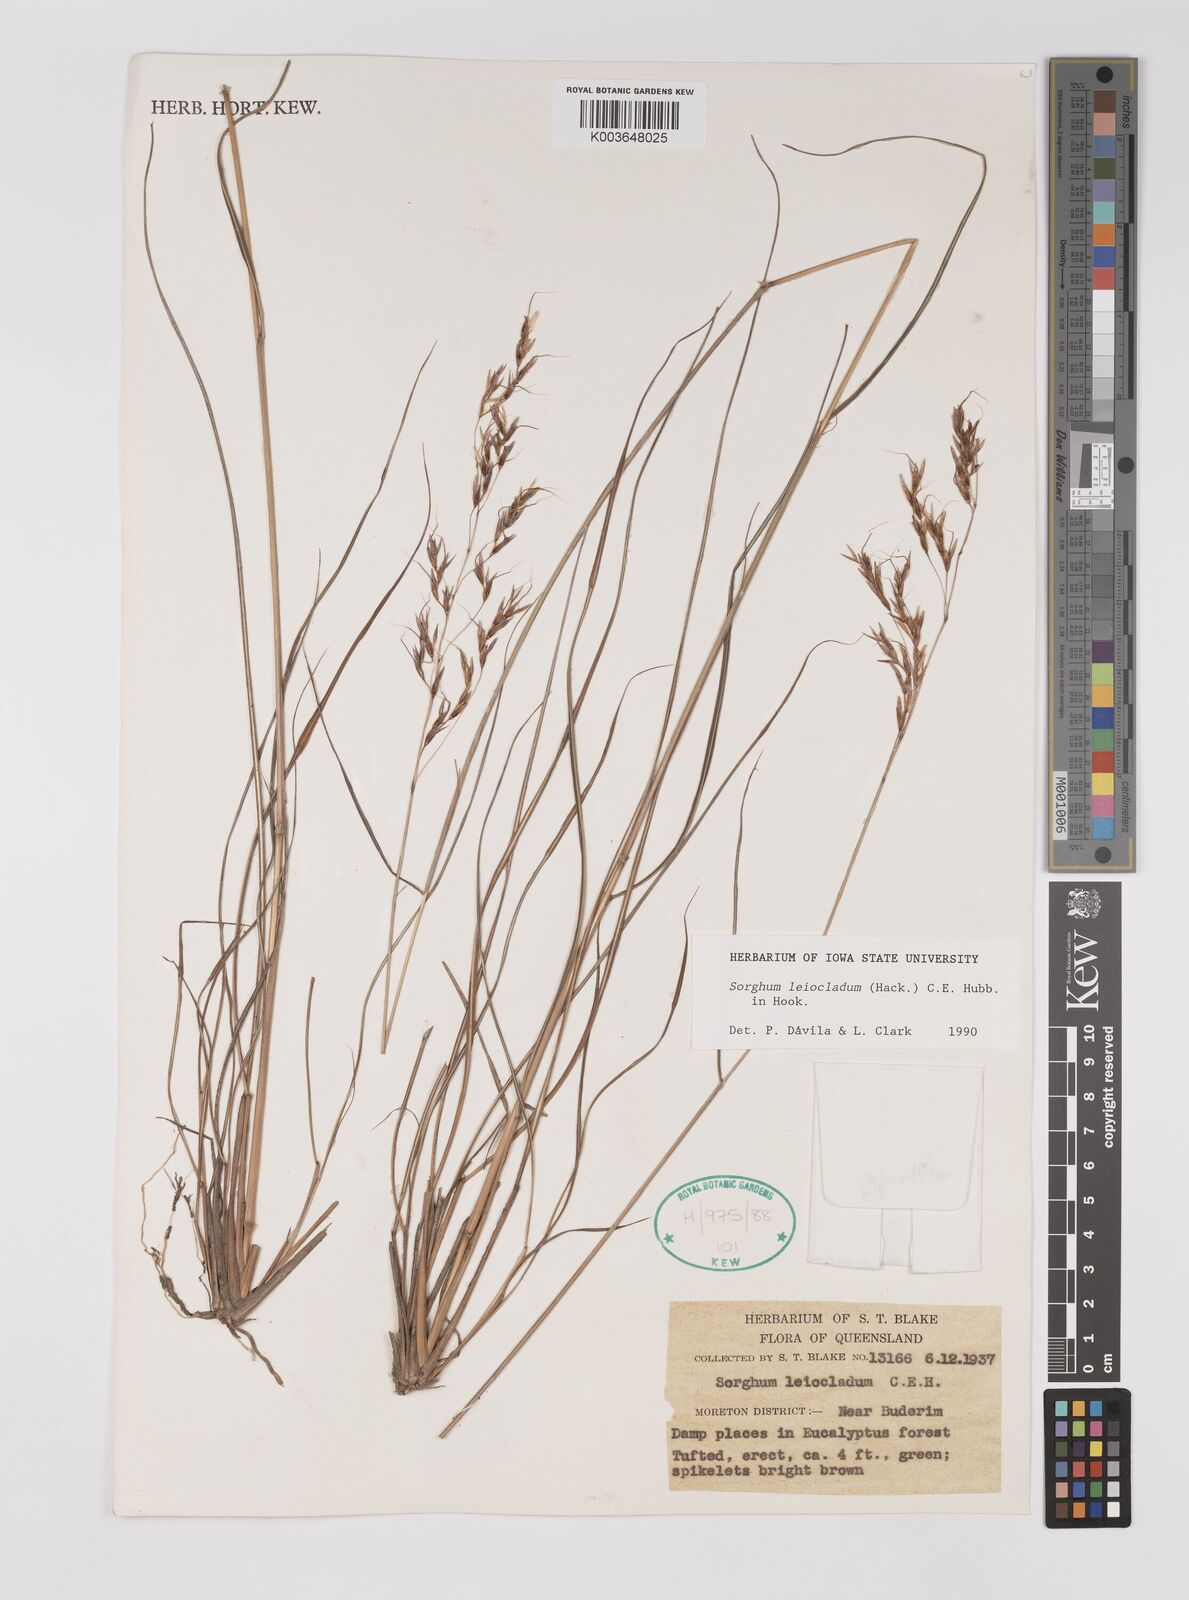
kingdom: Plantae
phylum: Tracheophyta
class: Liliopsida
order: Poales
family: Poaceae
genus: Sarga
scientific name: Sarga leioclada
